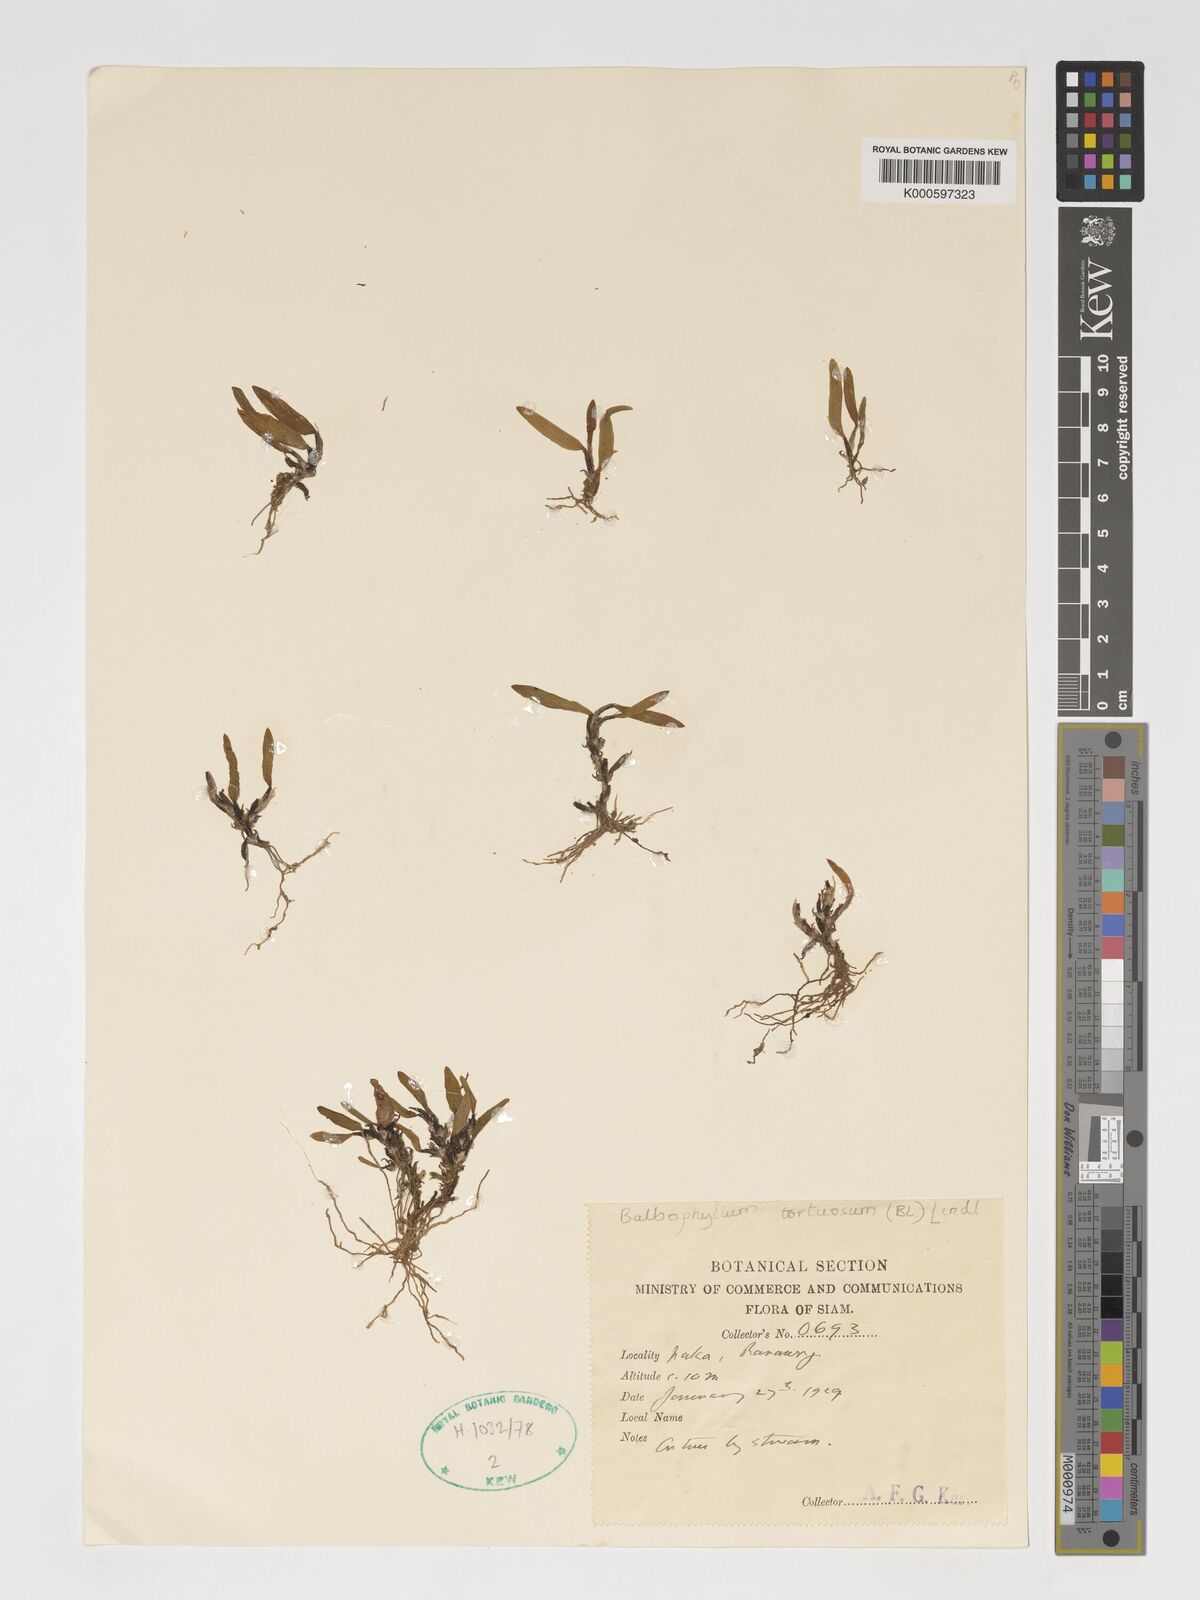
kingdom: Plantae
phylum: Tracheophyta
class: Liliopsida
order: Asparagales
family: Orchidaceae
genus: Bulbophyllum
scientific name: Bulbophyllum tortuosum
